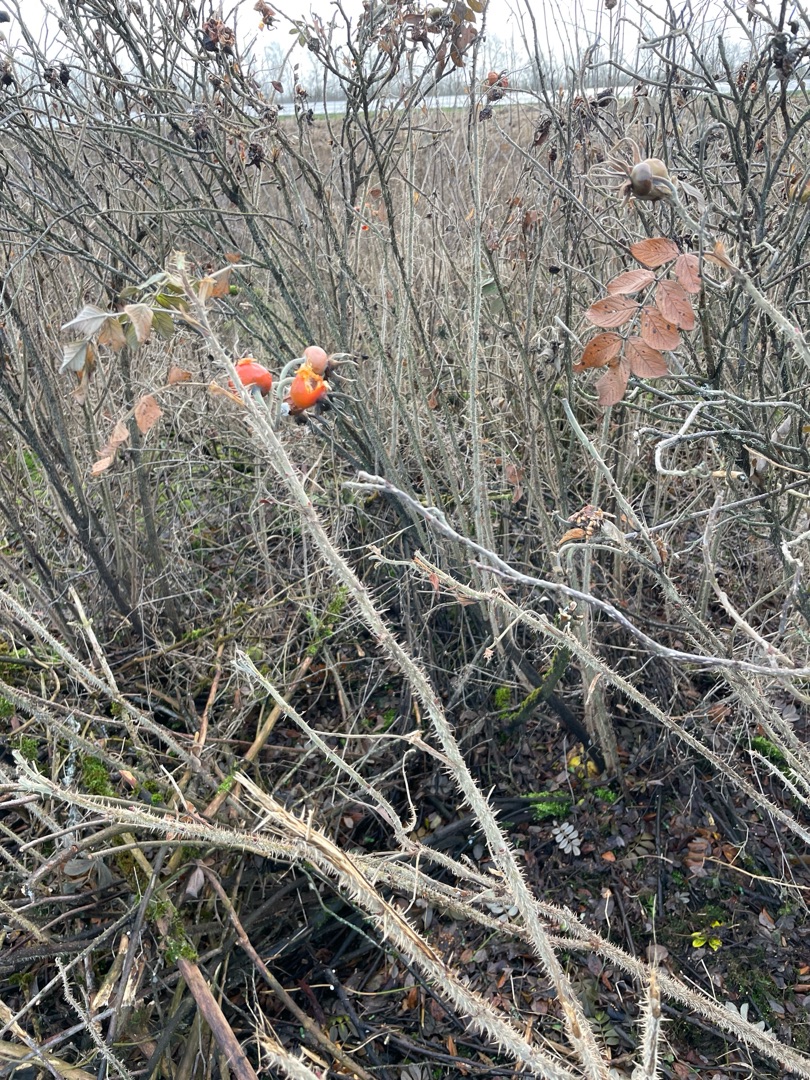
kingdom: Plantae
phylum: Tracheophyta
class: Magnoliopsida
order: Rosales
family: Rosaceae
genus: Rosa
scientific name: Rosa rugosa
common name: Rynket rose
